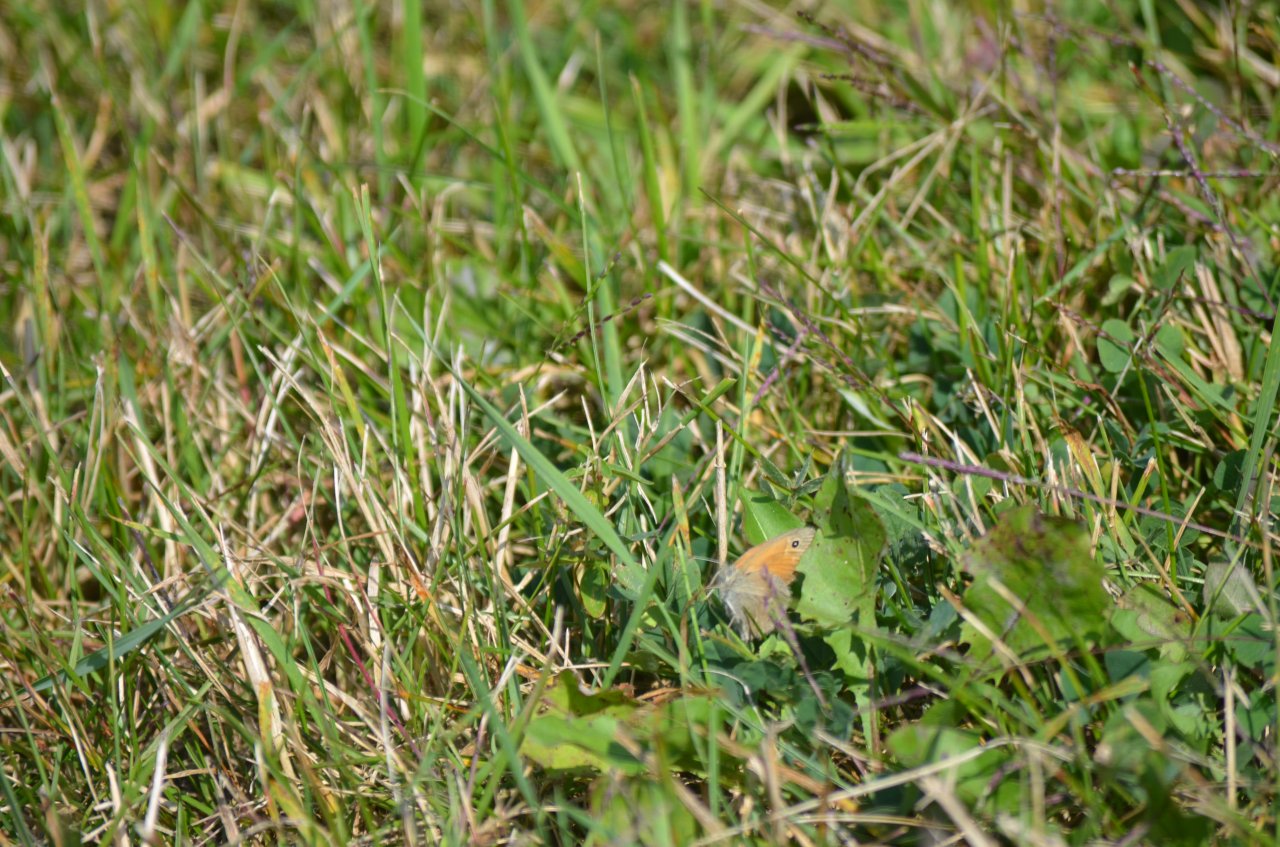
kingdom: Animalia
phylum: Arthropoda
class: Insecta
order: Lepidoptera
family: Nymphalidae
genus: Coenonympha
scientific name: Coenonympha tullia
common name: Large Heath
